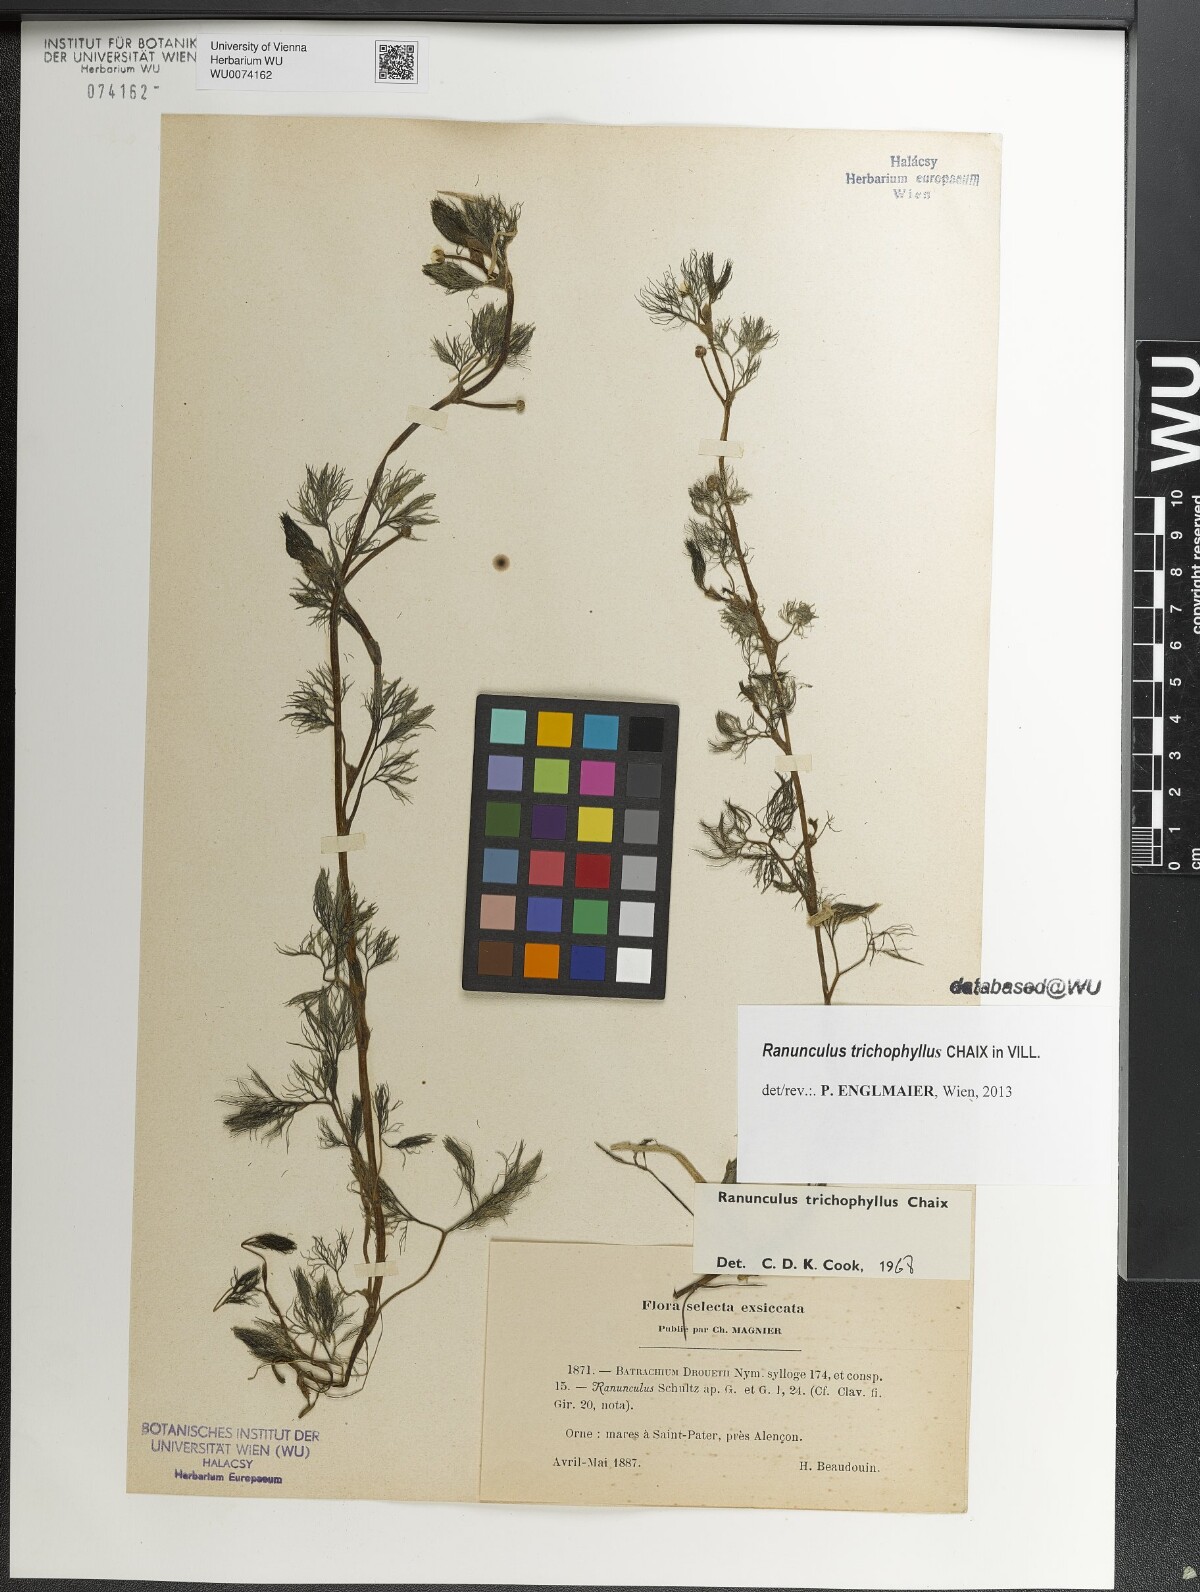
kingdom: Plantae
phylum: Tracheophyta
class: Magnoliopsida
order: Ranunculales
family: Ranunculaceae
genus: Ranunculus
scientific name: Ranunculus trichophyllus
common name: Thread-leaved water-crowfoot
